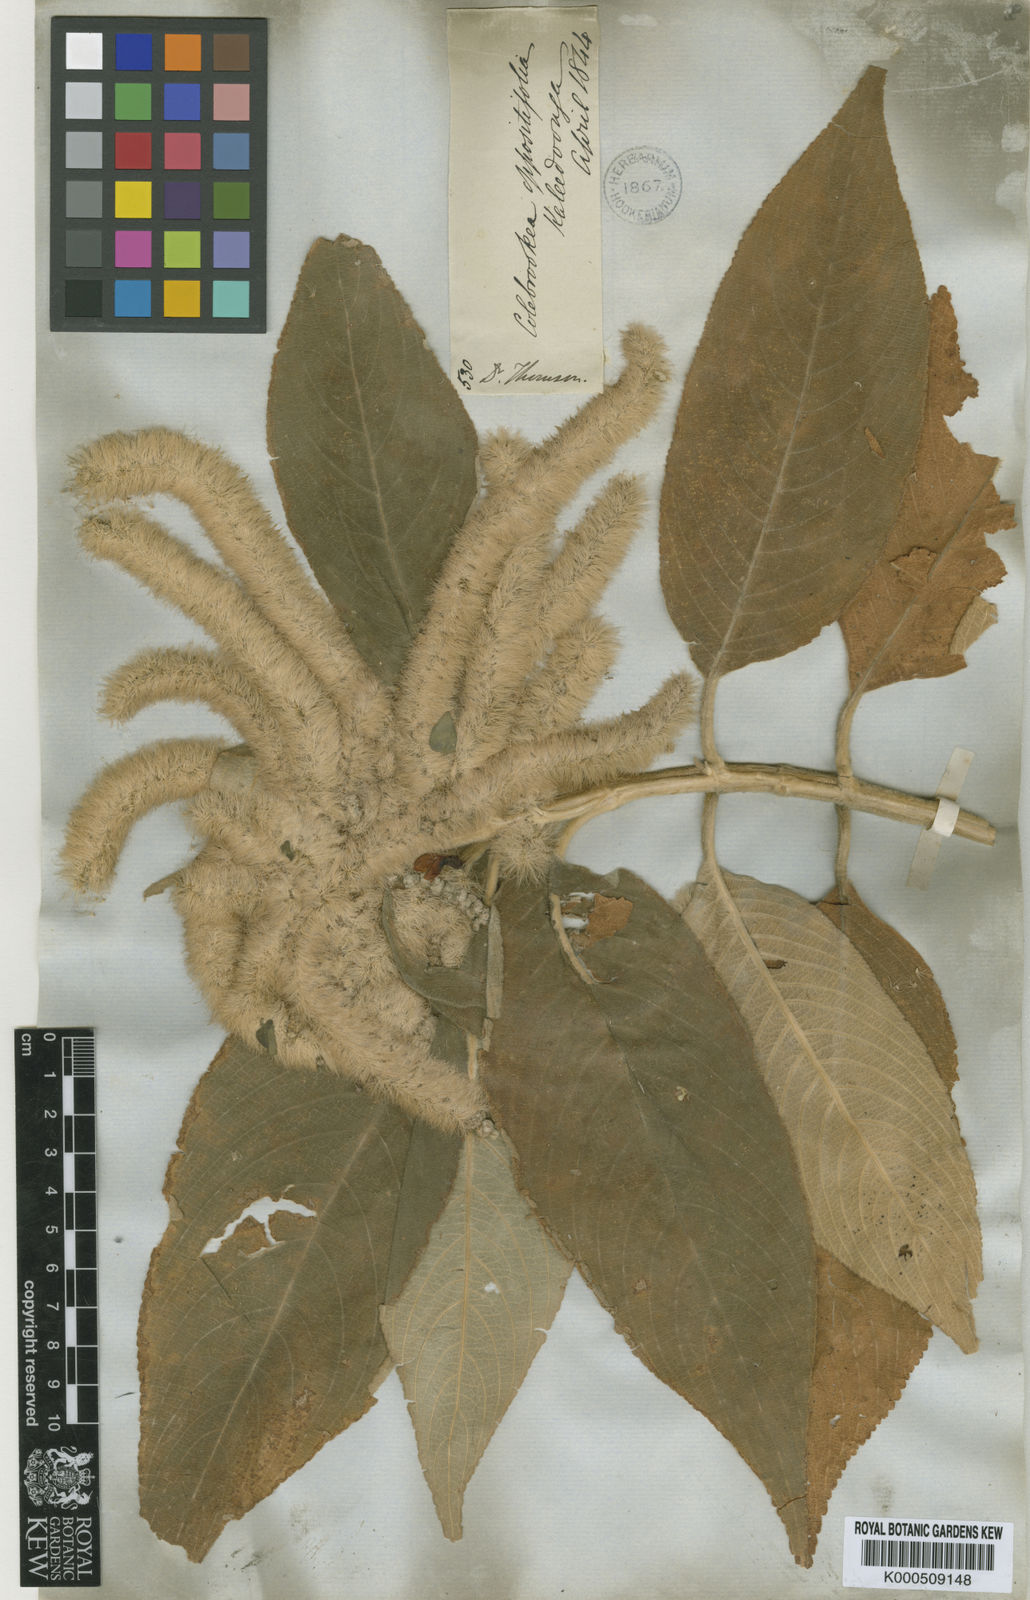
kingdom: Plantae
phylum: Tracheophyta
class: Magnoliopsida
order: Lamiales
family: Lamiaceae
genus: Colebrookea
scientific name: Colebrookea oppositifolia
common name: Indian squirrel tail
